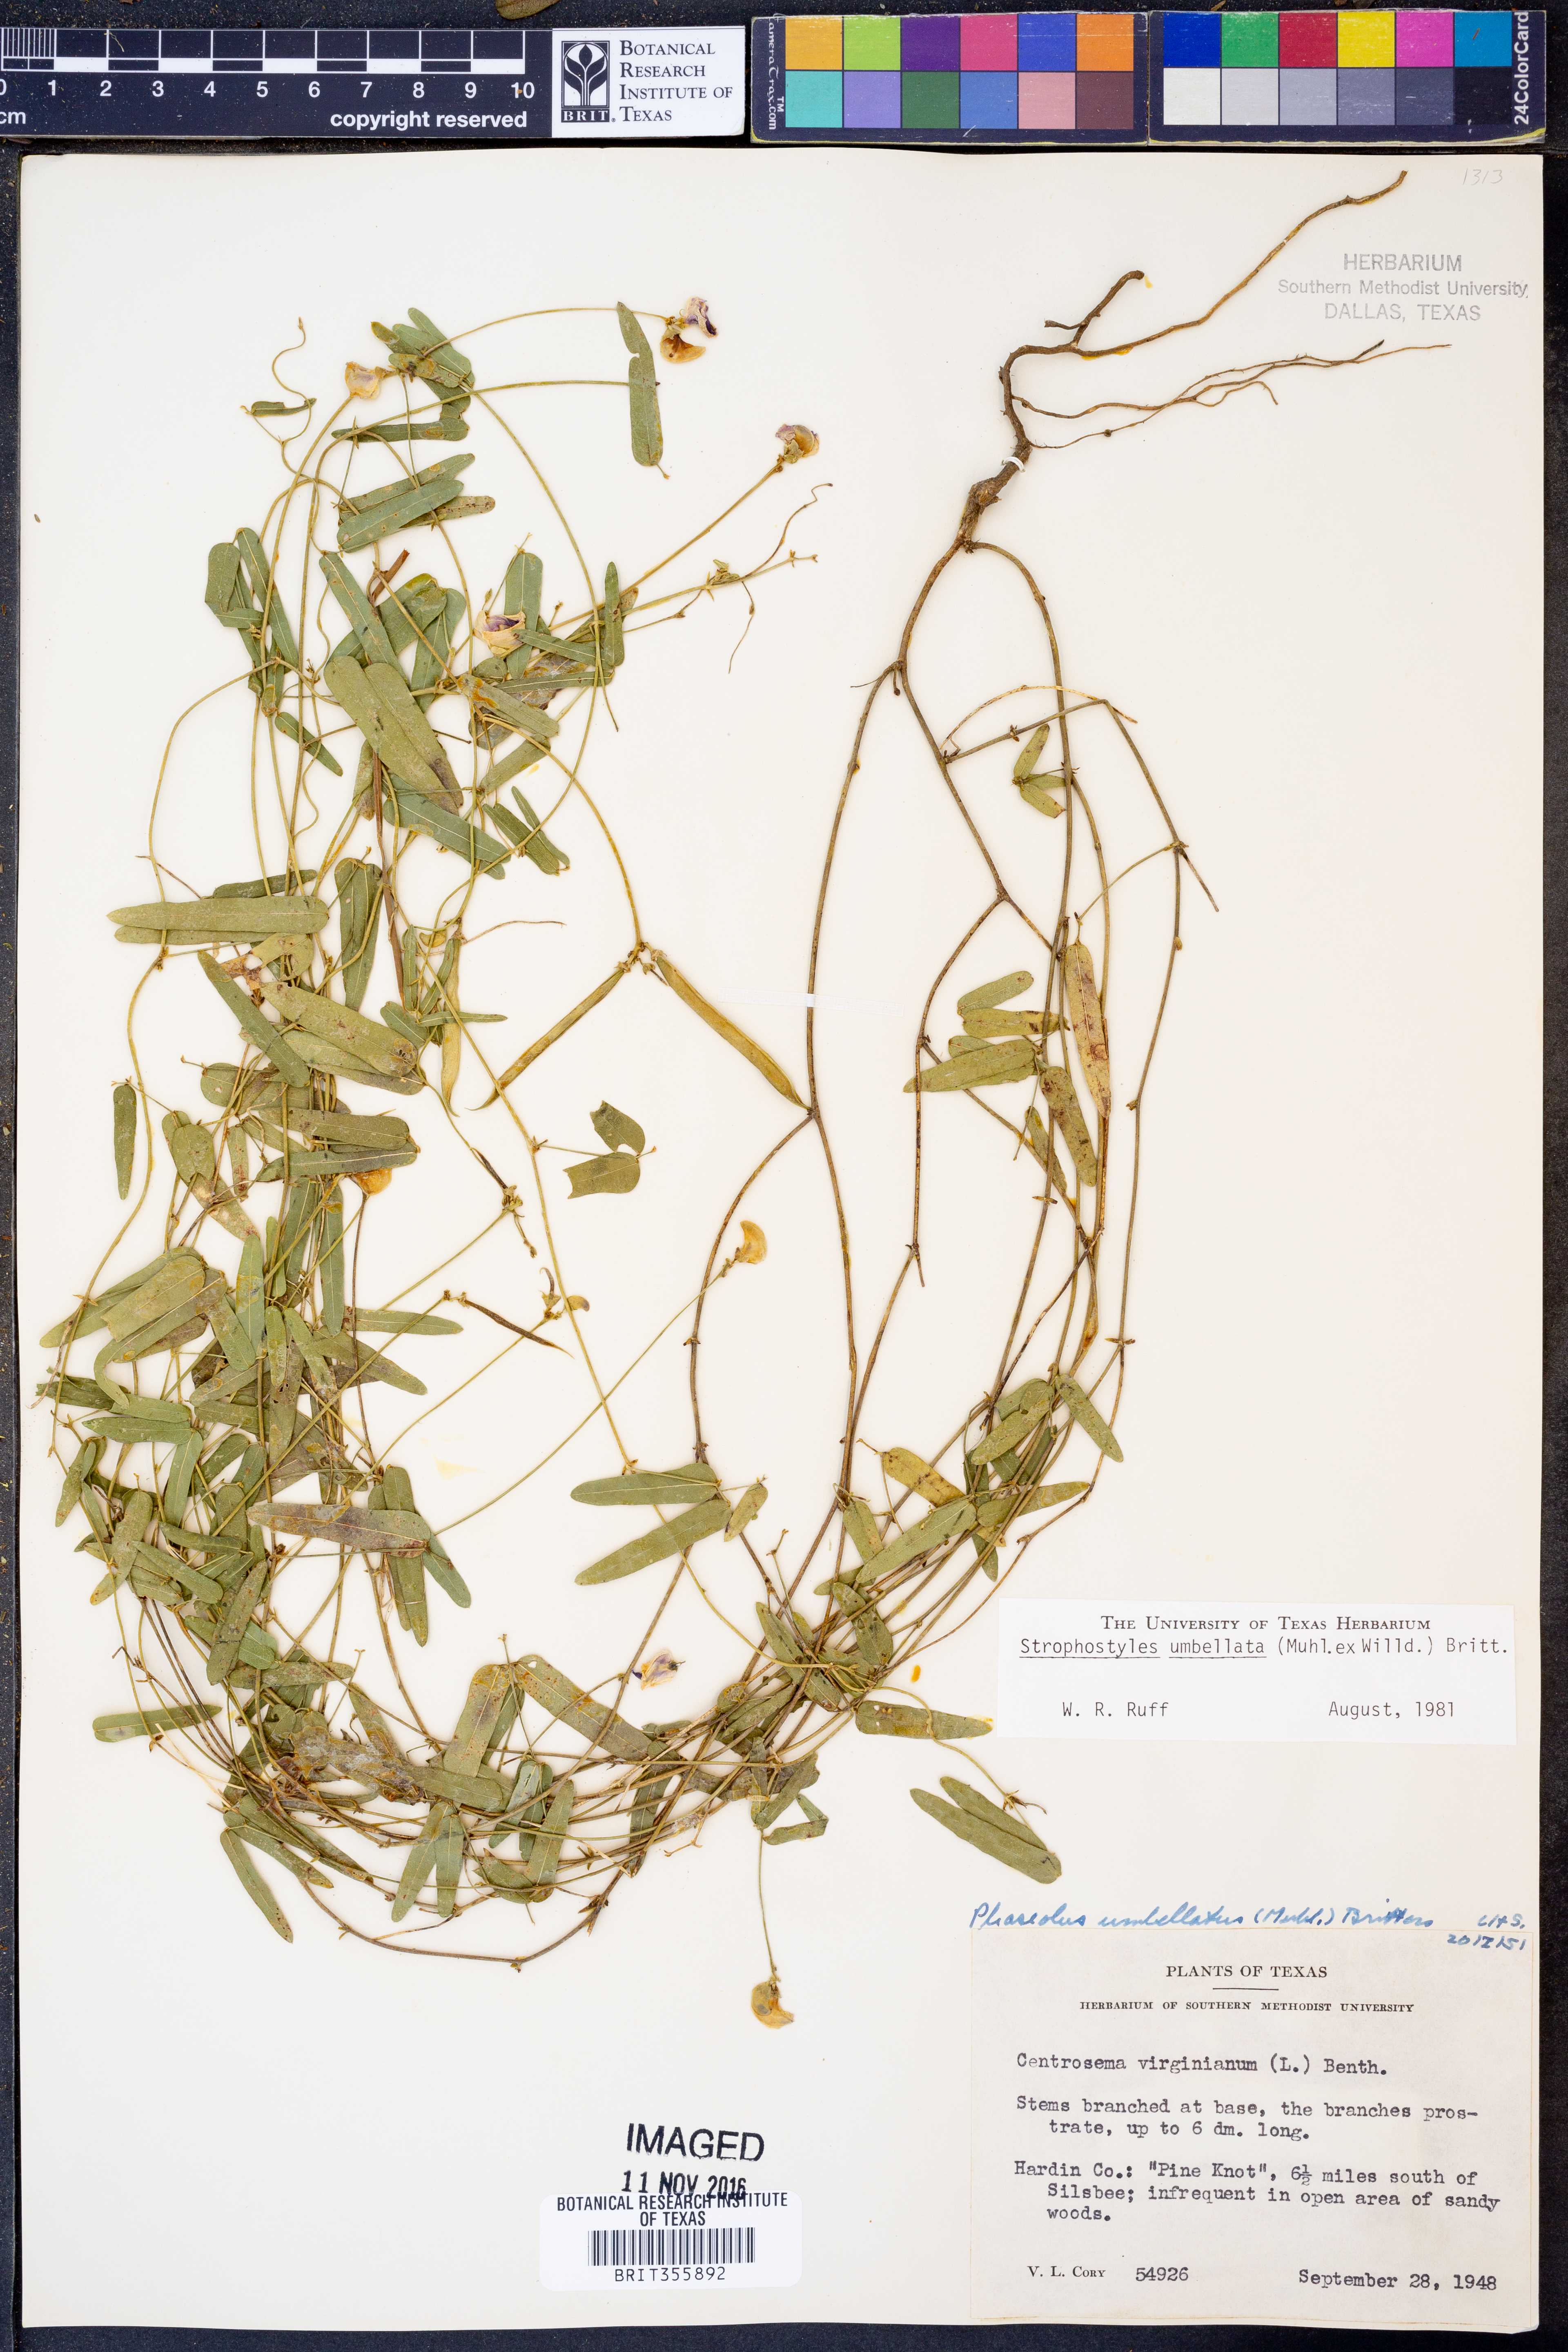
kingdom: Plantae
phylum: Tracheophyta
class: Magnoliopsida
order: Fabales
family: Fabaceae
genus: Strophostyles
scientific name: Strophostyles umbellata
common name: Perennial wild bean
